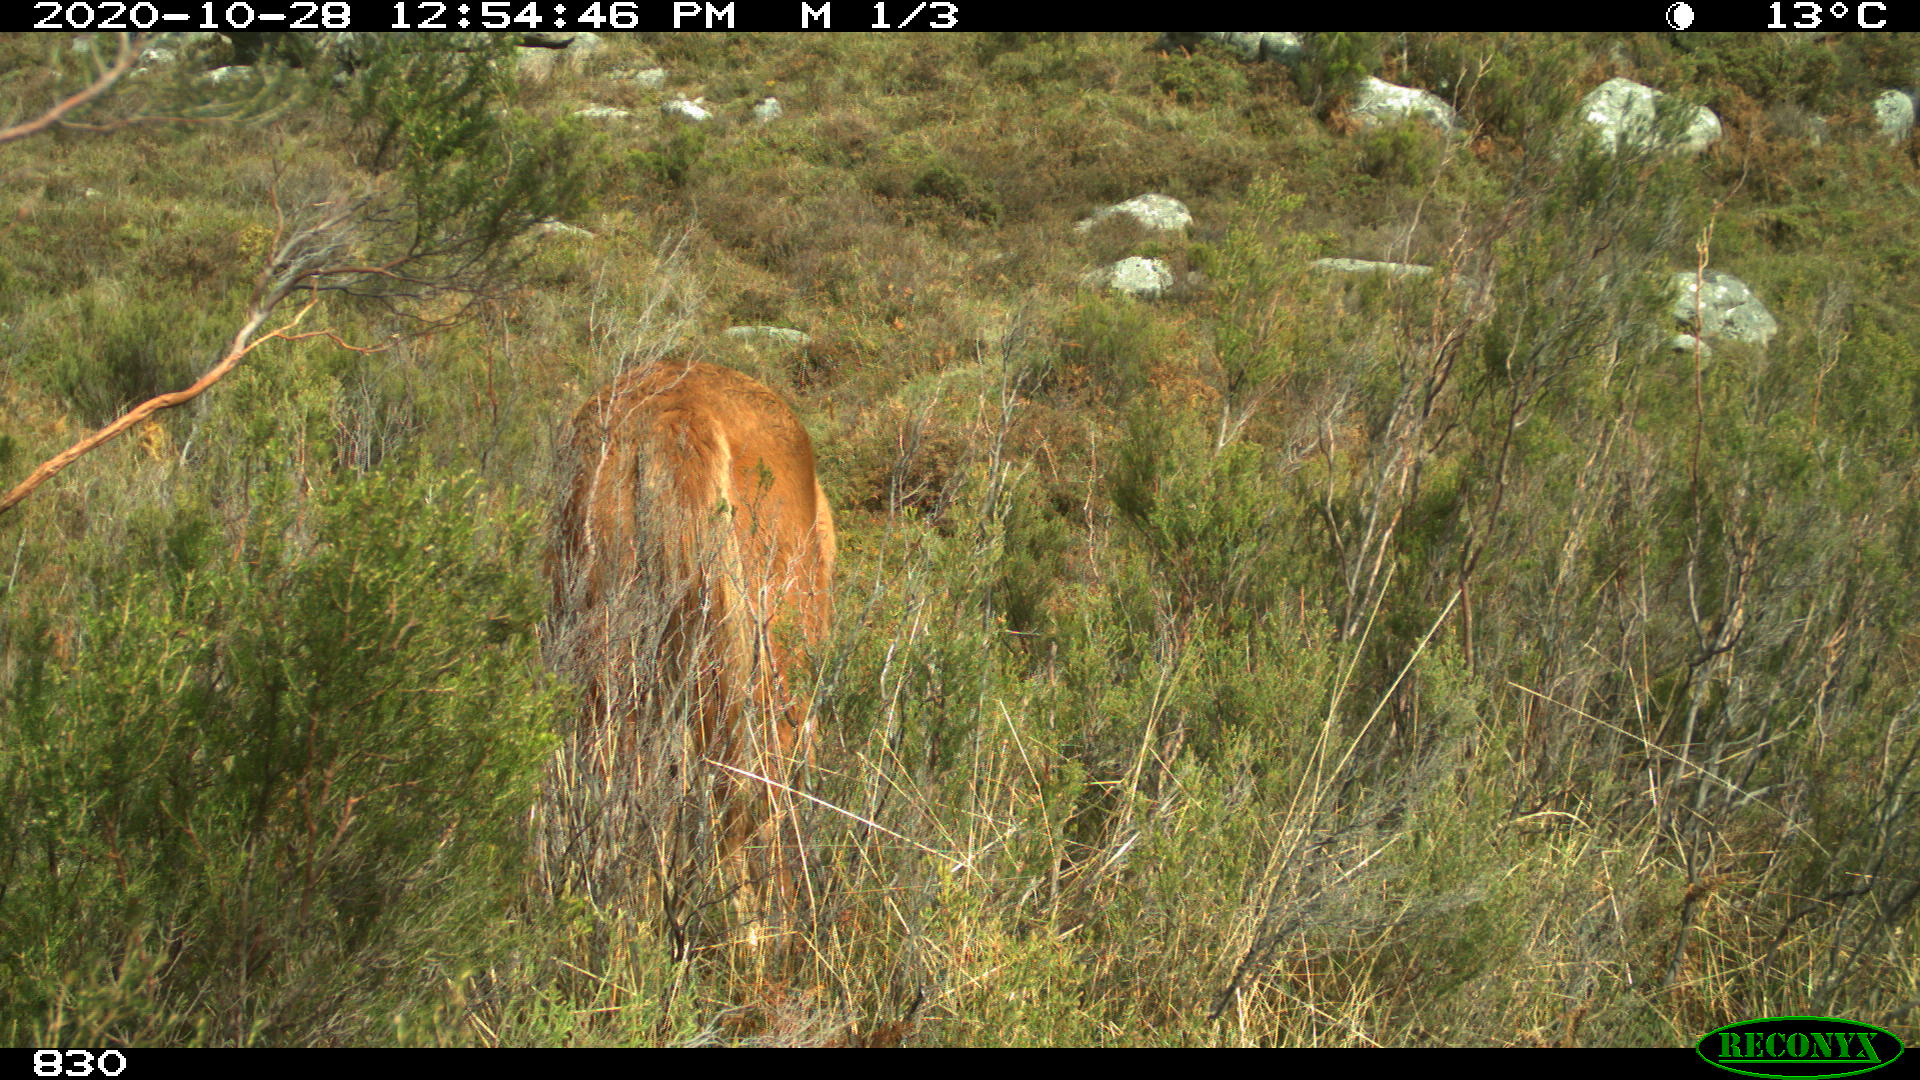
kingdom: Animalia
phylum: Chordata
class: Mammalia
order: Perissodactyla
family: Equidae
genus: Equus
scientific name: Equus caballus
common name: Horse
